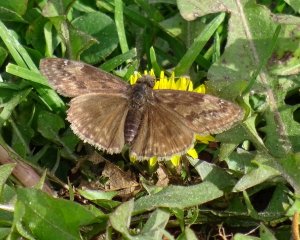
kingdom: Animalia
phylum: Arthropoda
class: Insecta
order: Lepidoptera
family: Hesperiidae
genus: Gesta
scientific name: Gesta
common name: Wild Indigo Duskywing
